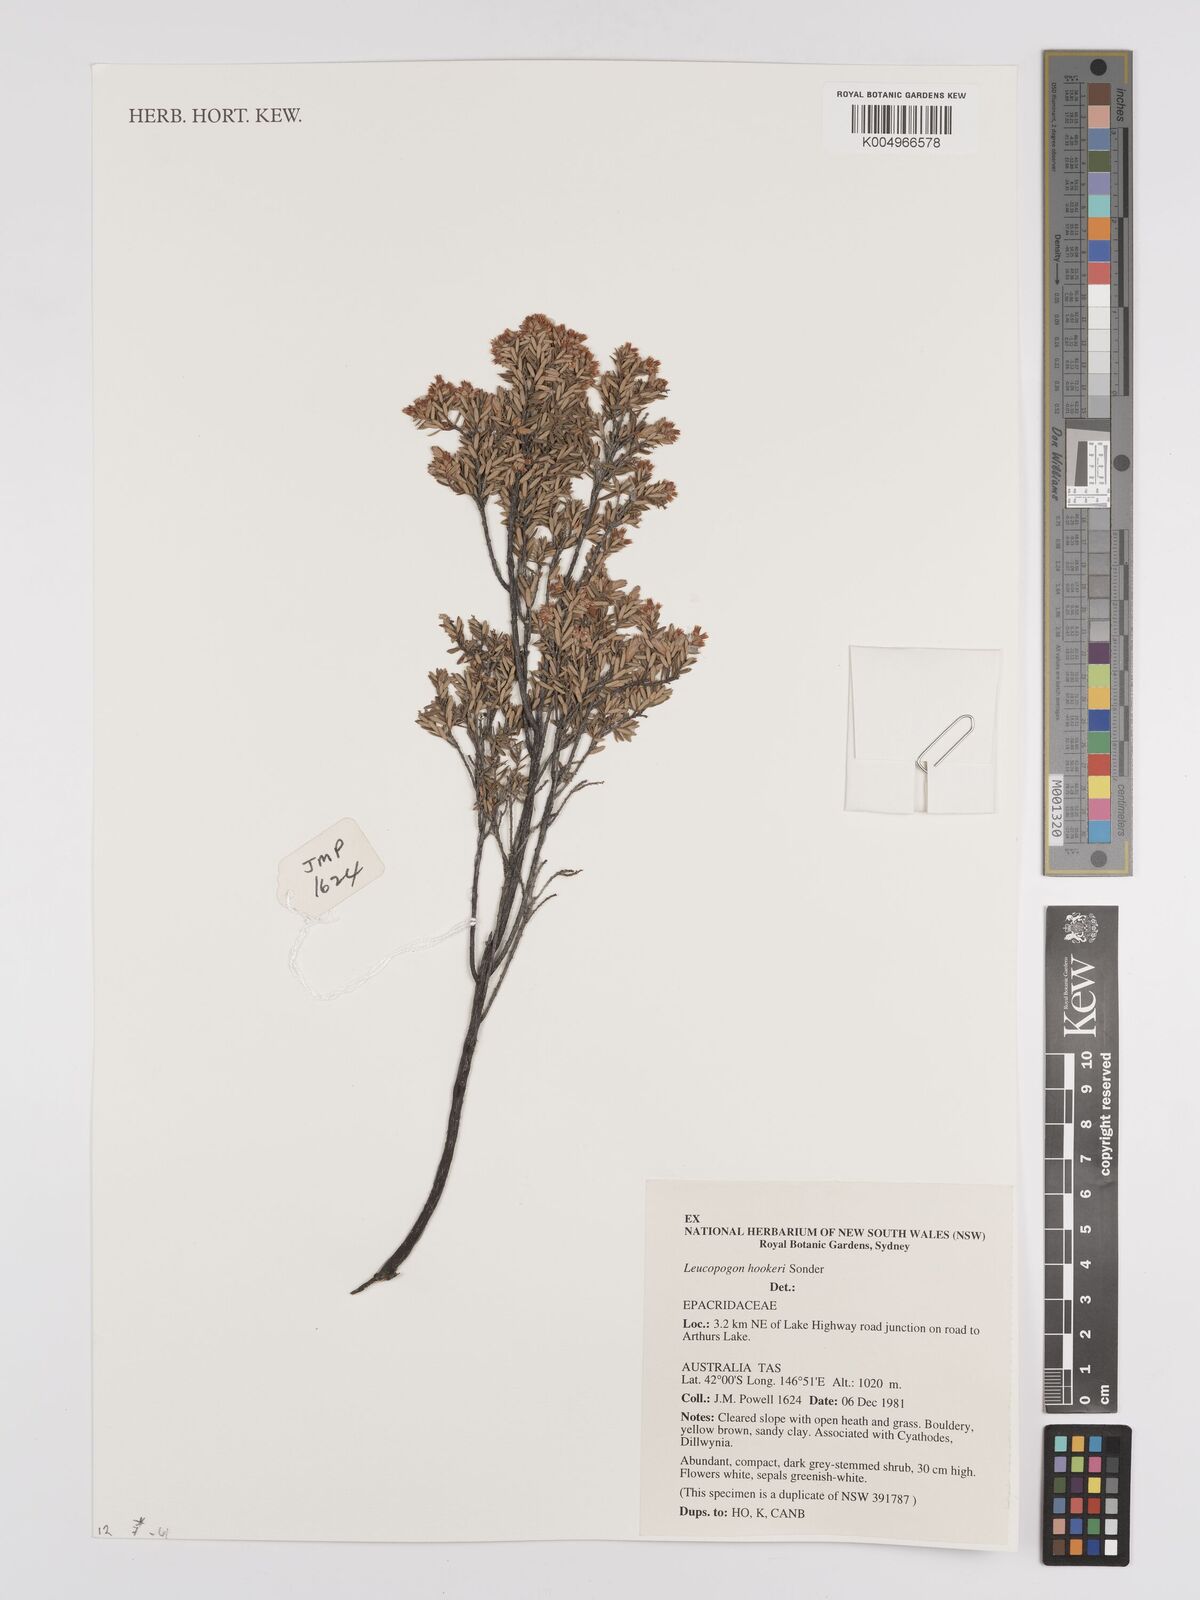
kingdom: Plantae
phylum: Tracheophyta
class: Magnoliopsida
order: Ericales
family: Ericaceae
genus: Acrothamnus
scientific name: Acrothamnus hookeri
